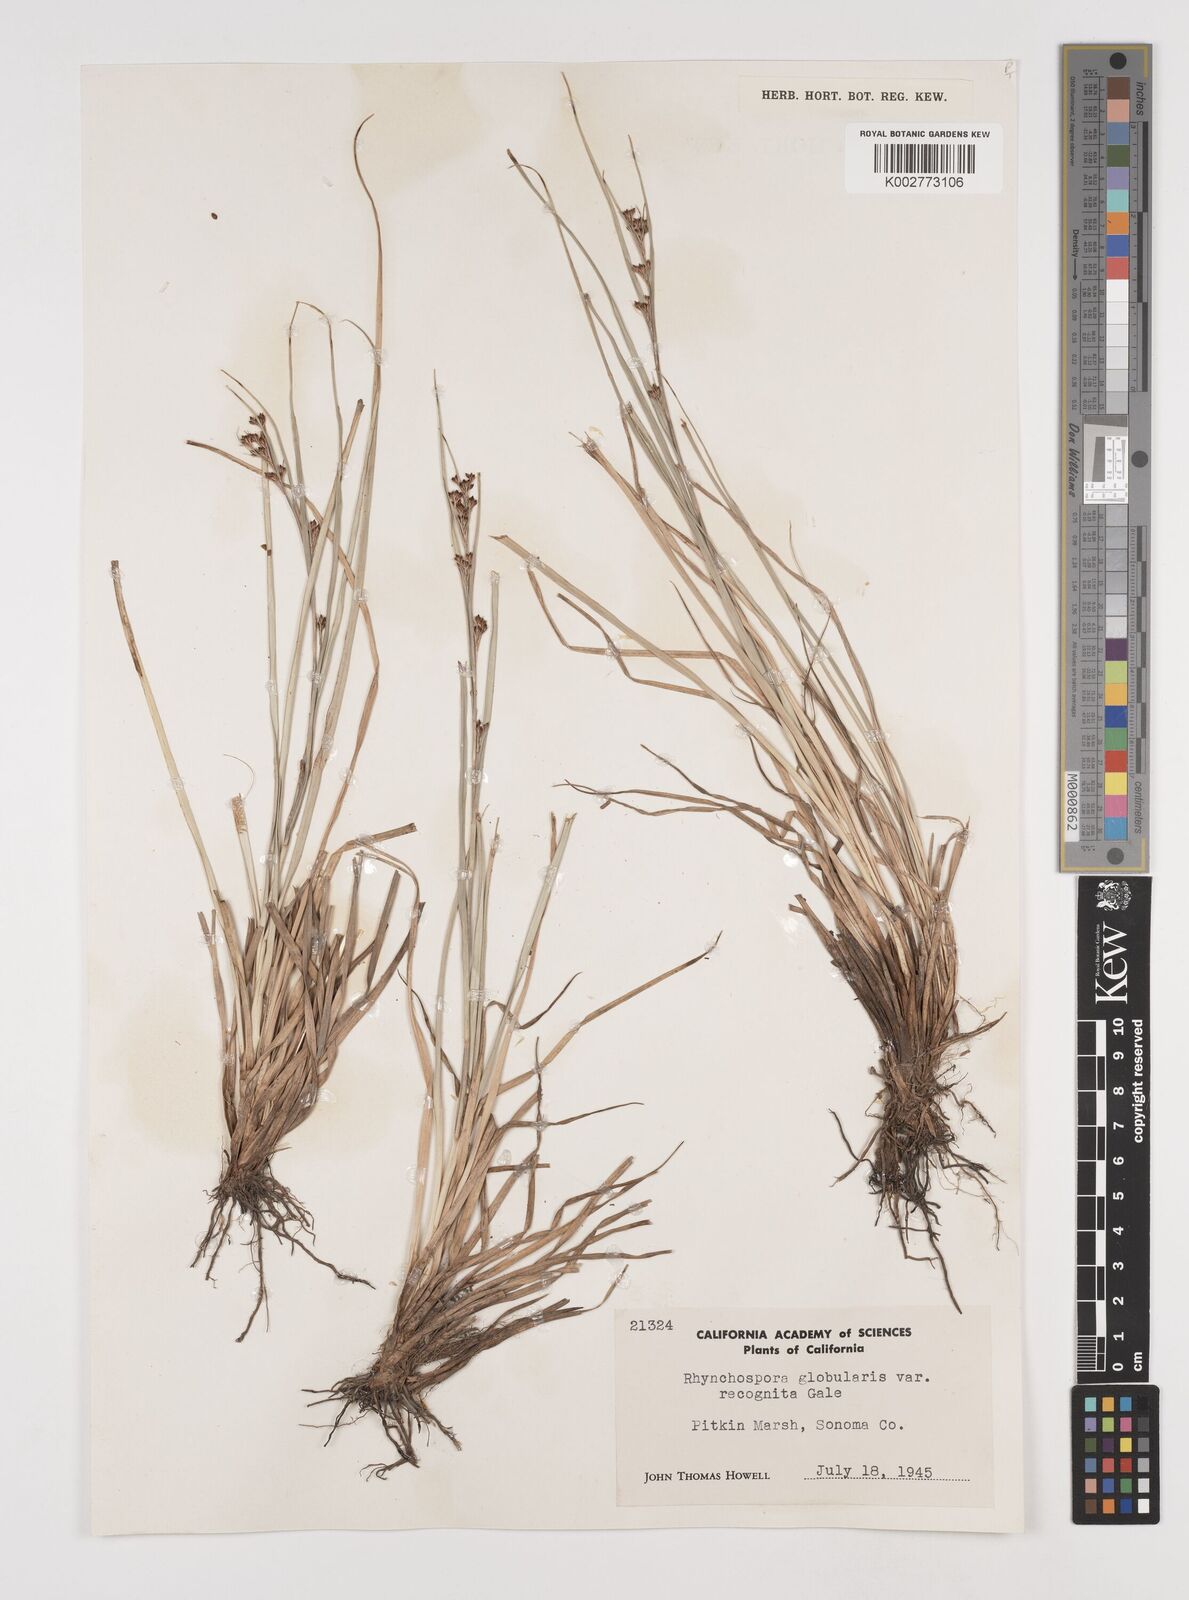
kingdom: Plantae
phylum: Tracheophyta
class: Liliopsida
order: Poales
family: Cyperaceae
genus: Rhynchospora
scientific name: Rhynchospora recognita
